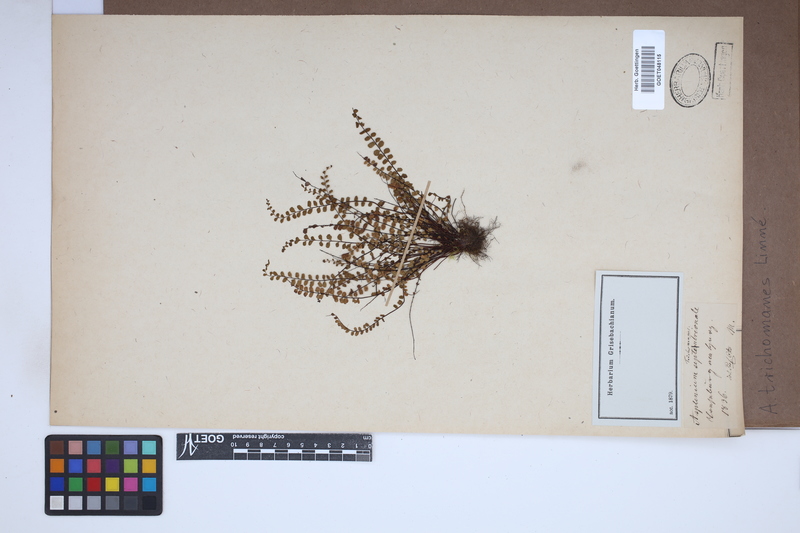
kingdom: Plantae
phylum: Tracheophyta
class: Polypodiopsida
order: Polypodiales
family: Aspleniaceae
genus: Asplenium
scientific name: Asplenium trichomanes
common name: Maidenhair spleenwort
